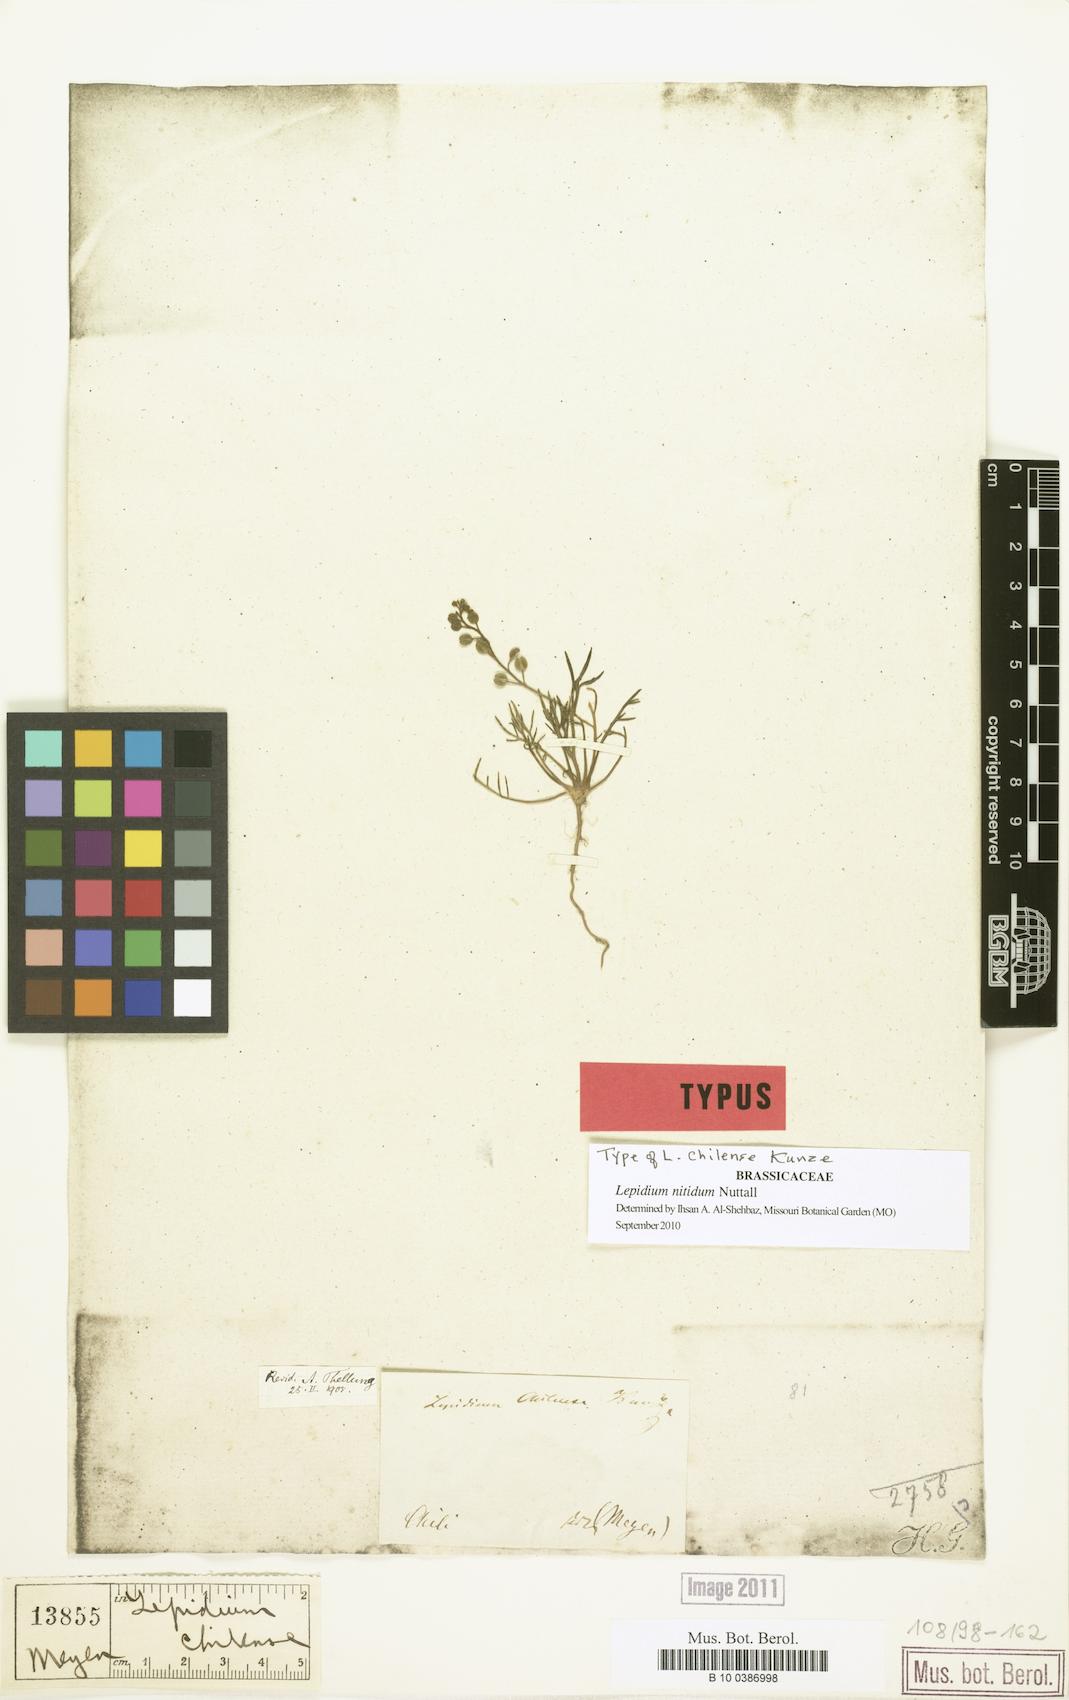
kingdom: Plantae
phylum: Tracheophyta
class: Magnoliopsida
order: Brassicales
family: Brassicaceae
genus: Lepidium
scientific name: Lepidium nitidum
